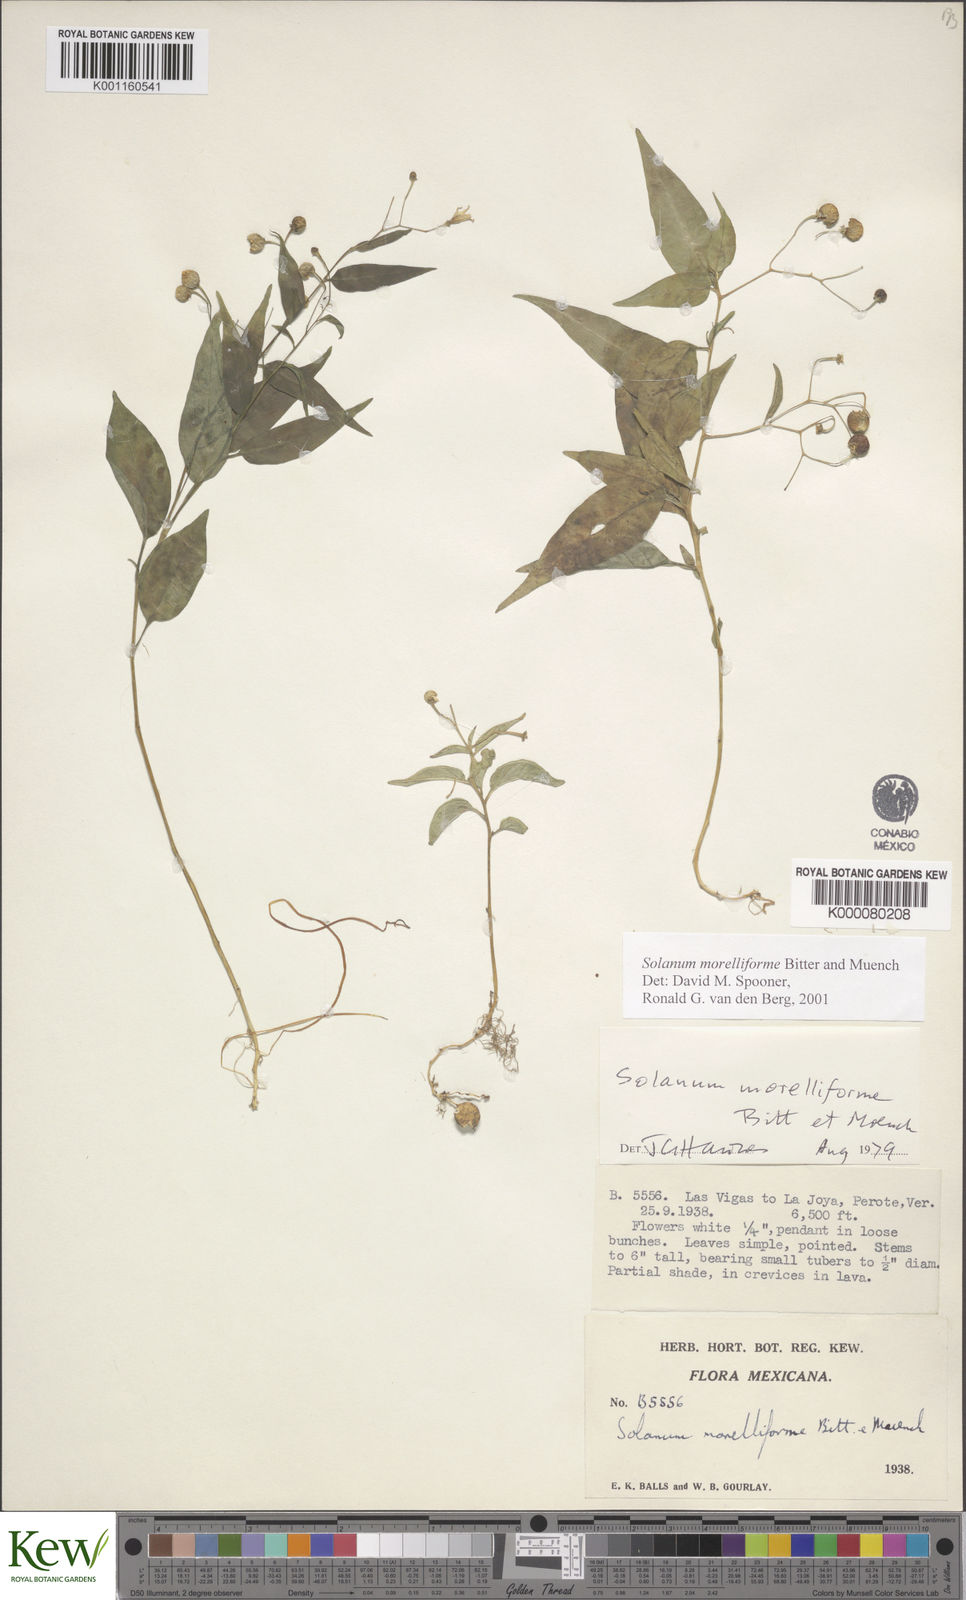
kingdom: Plantae
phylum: Tracheophyta
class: Magnoliopsida
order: Solanales
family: Solanaceae
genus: Solanum
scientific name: Solanum morelliforme
